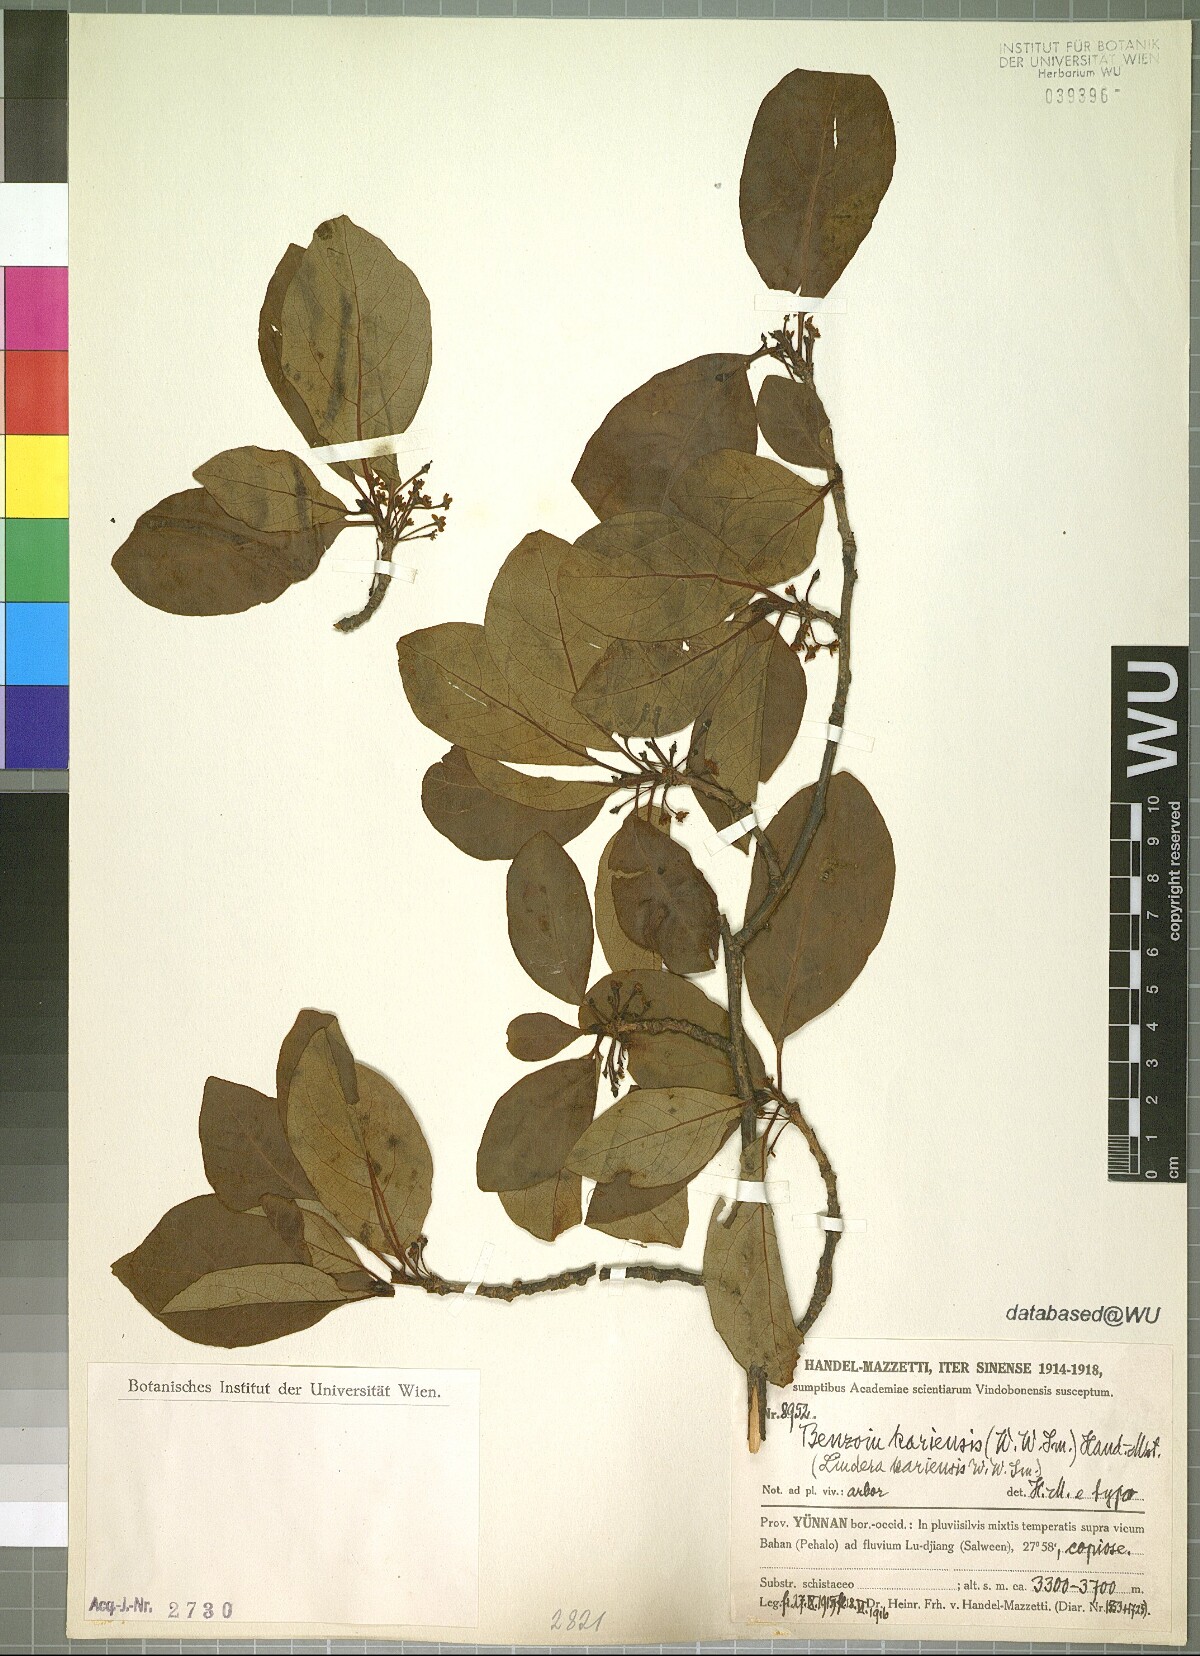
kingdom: Plantae
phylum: Tracheophyta
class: Magnoliopsida
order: Laurales
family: Lauraceae
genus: Lindera
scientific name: Lindera kariensis
